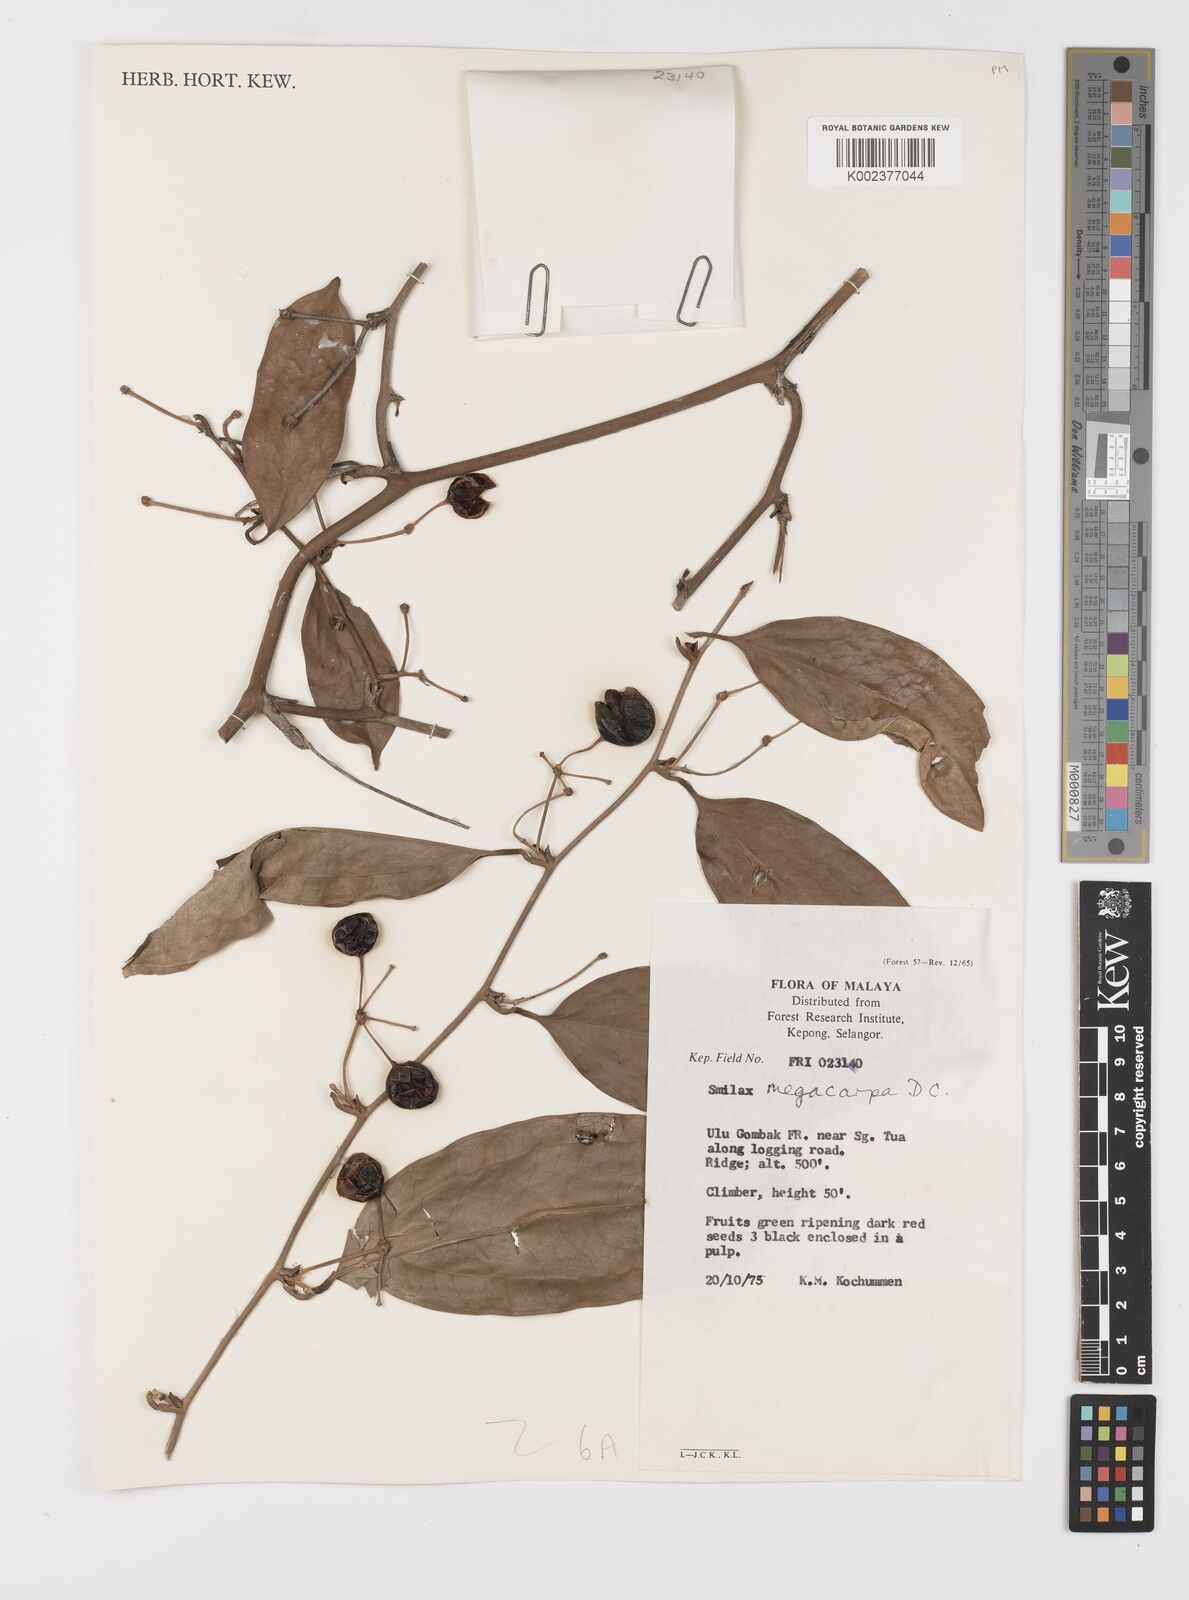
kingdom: Plantae
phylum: Tracheophyta
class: Liliopsida
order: Liliales
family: Smilacaceae
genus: Smilax
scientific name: Smilax megacarpa
